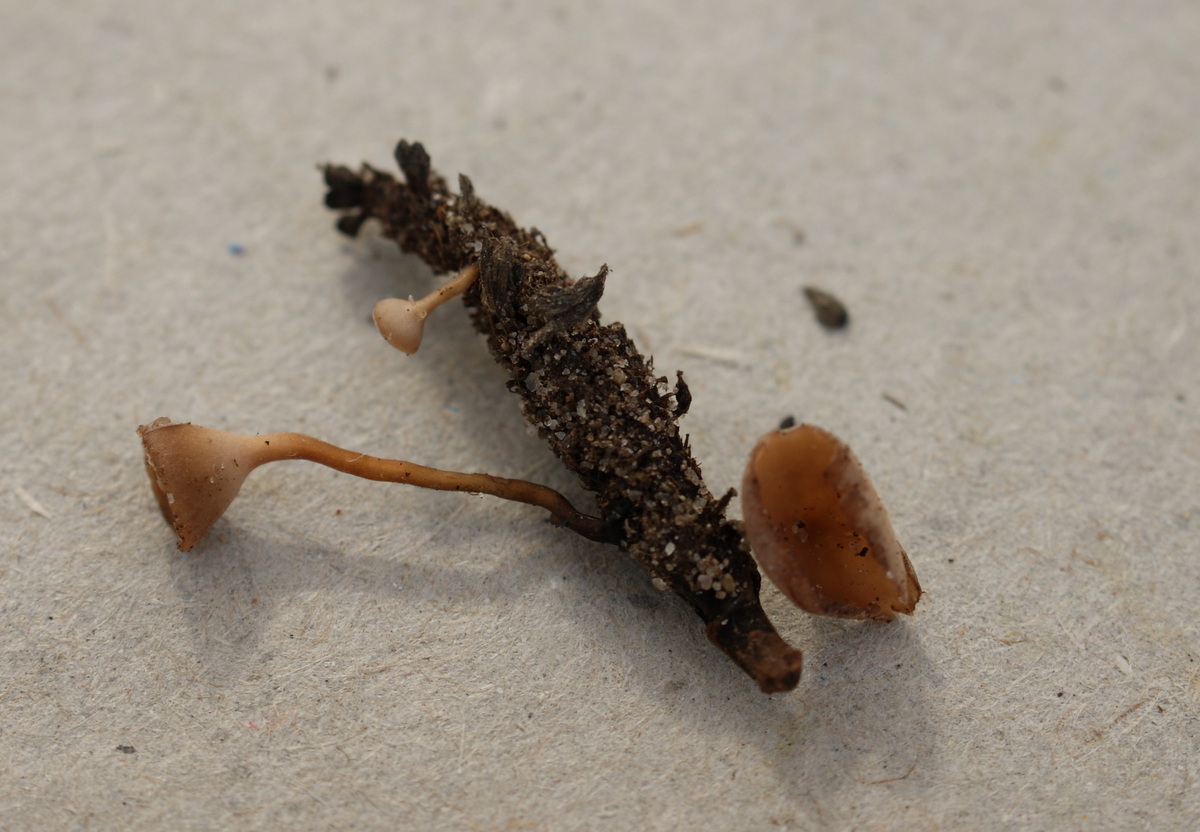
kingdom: Fungi
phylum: Ascomycota
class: Leotiomycetes
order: Helotiales
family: Sclerotiniaceae
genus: Ciboria
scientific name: Ciboria caucus
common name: rakle-knoldskive
